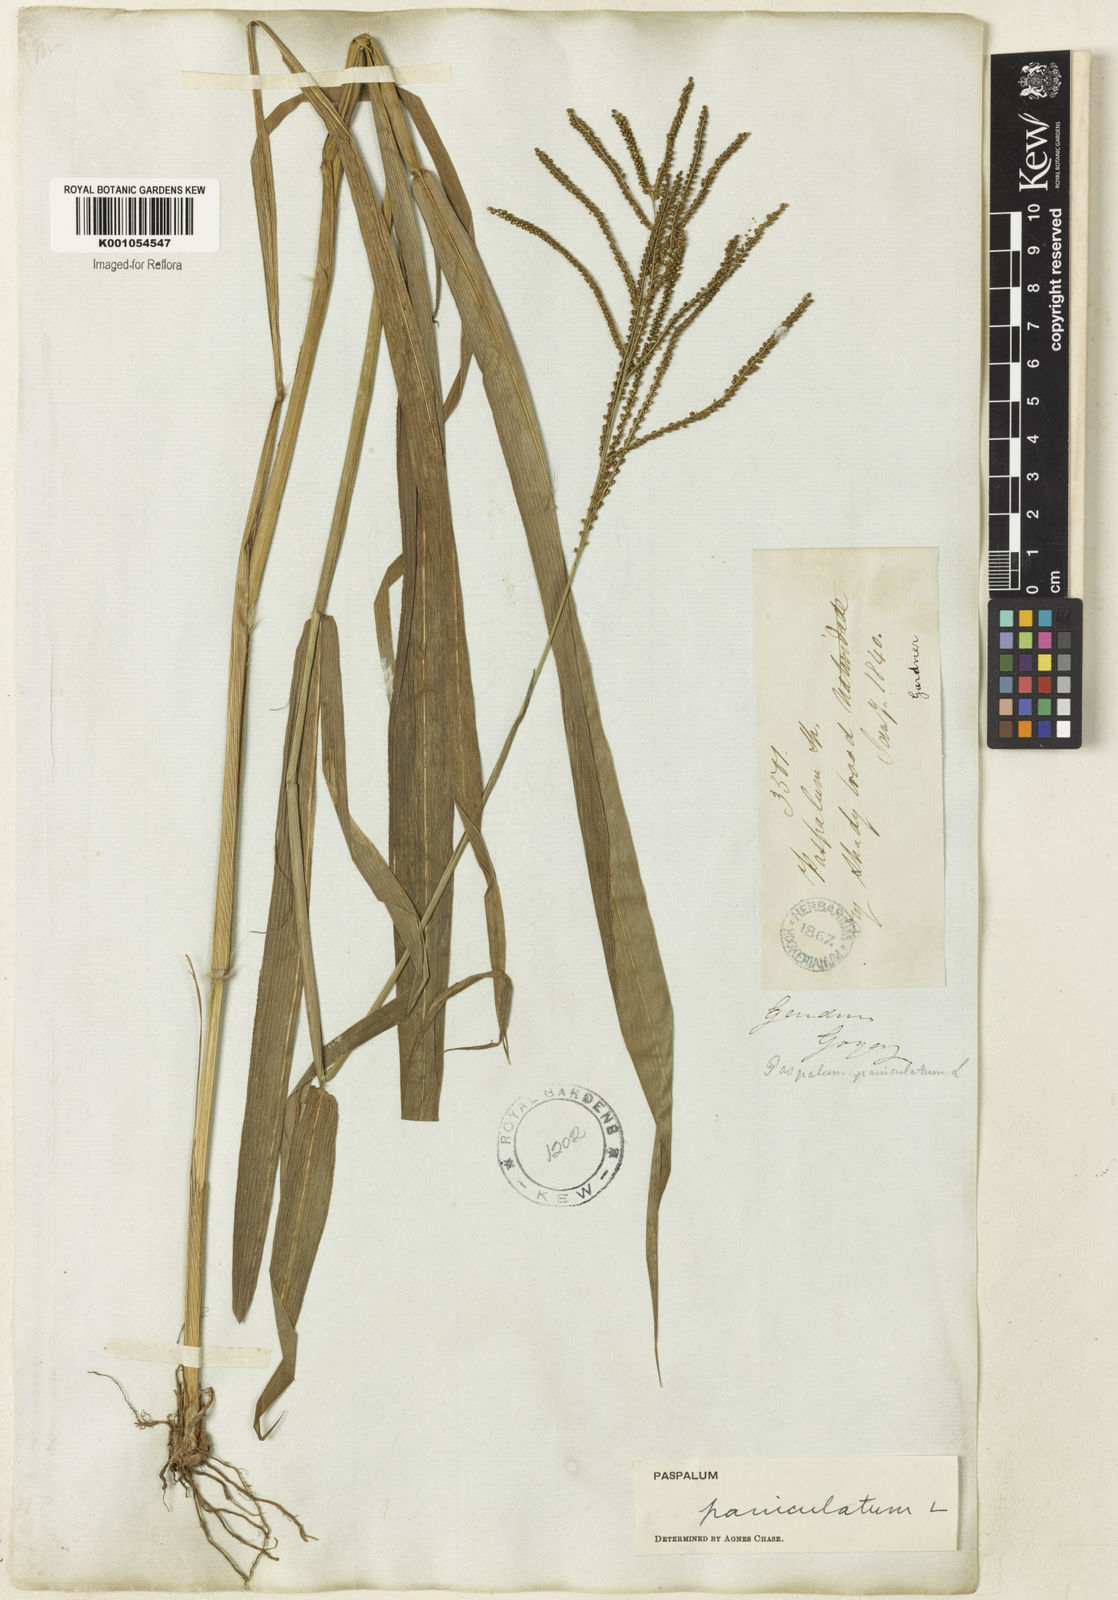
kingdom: Plantae
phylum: Tracheophyta
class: Liliopsida
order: Poales
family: Poaceae
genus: Paspalum
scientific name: Paspalum paniculatum
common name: Arrocillo
